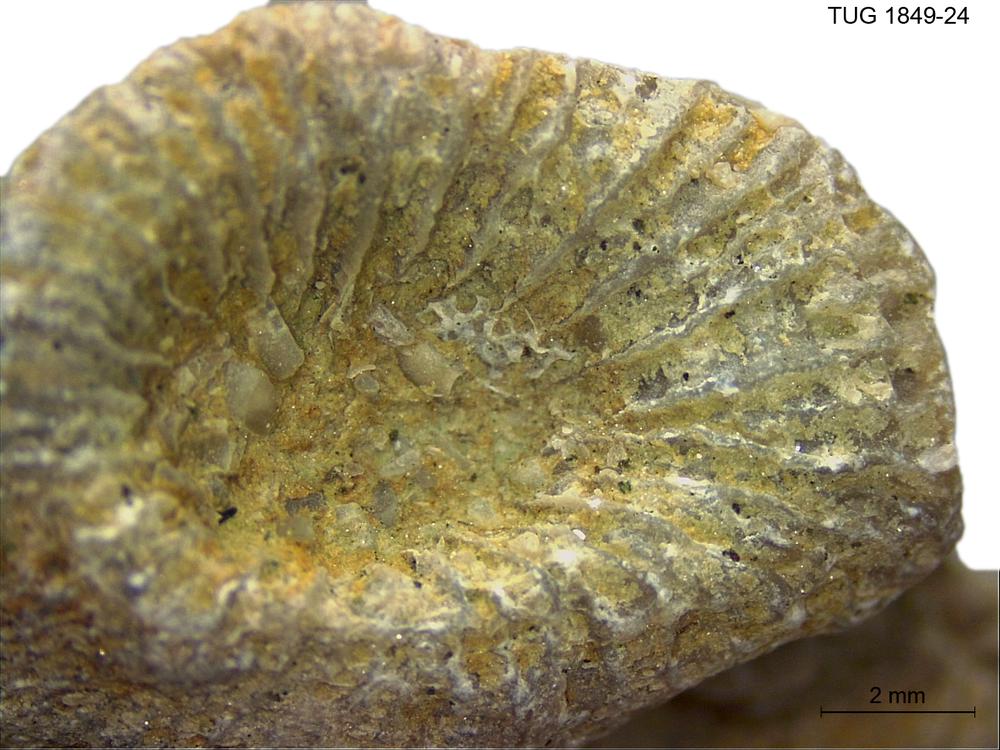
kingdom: Animalia
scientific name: Animalia
